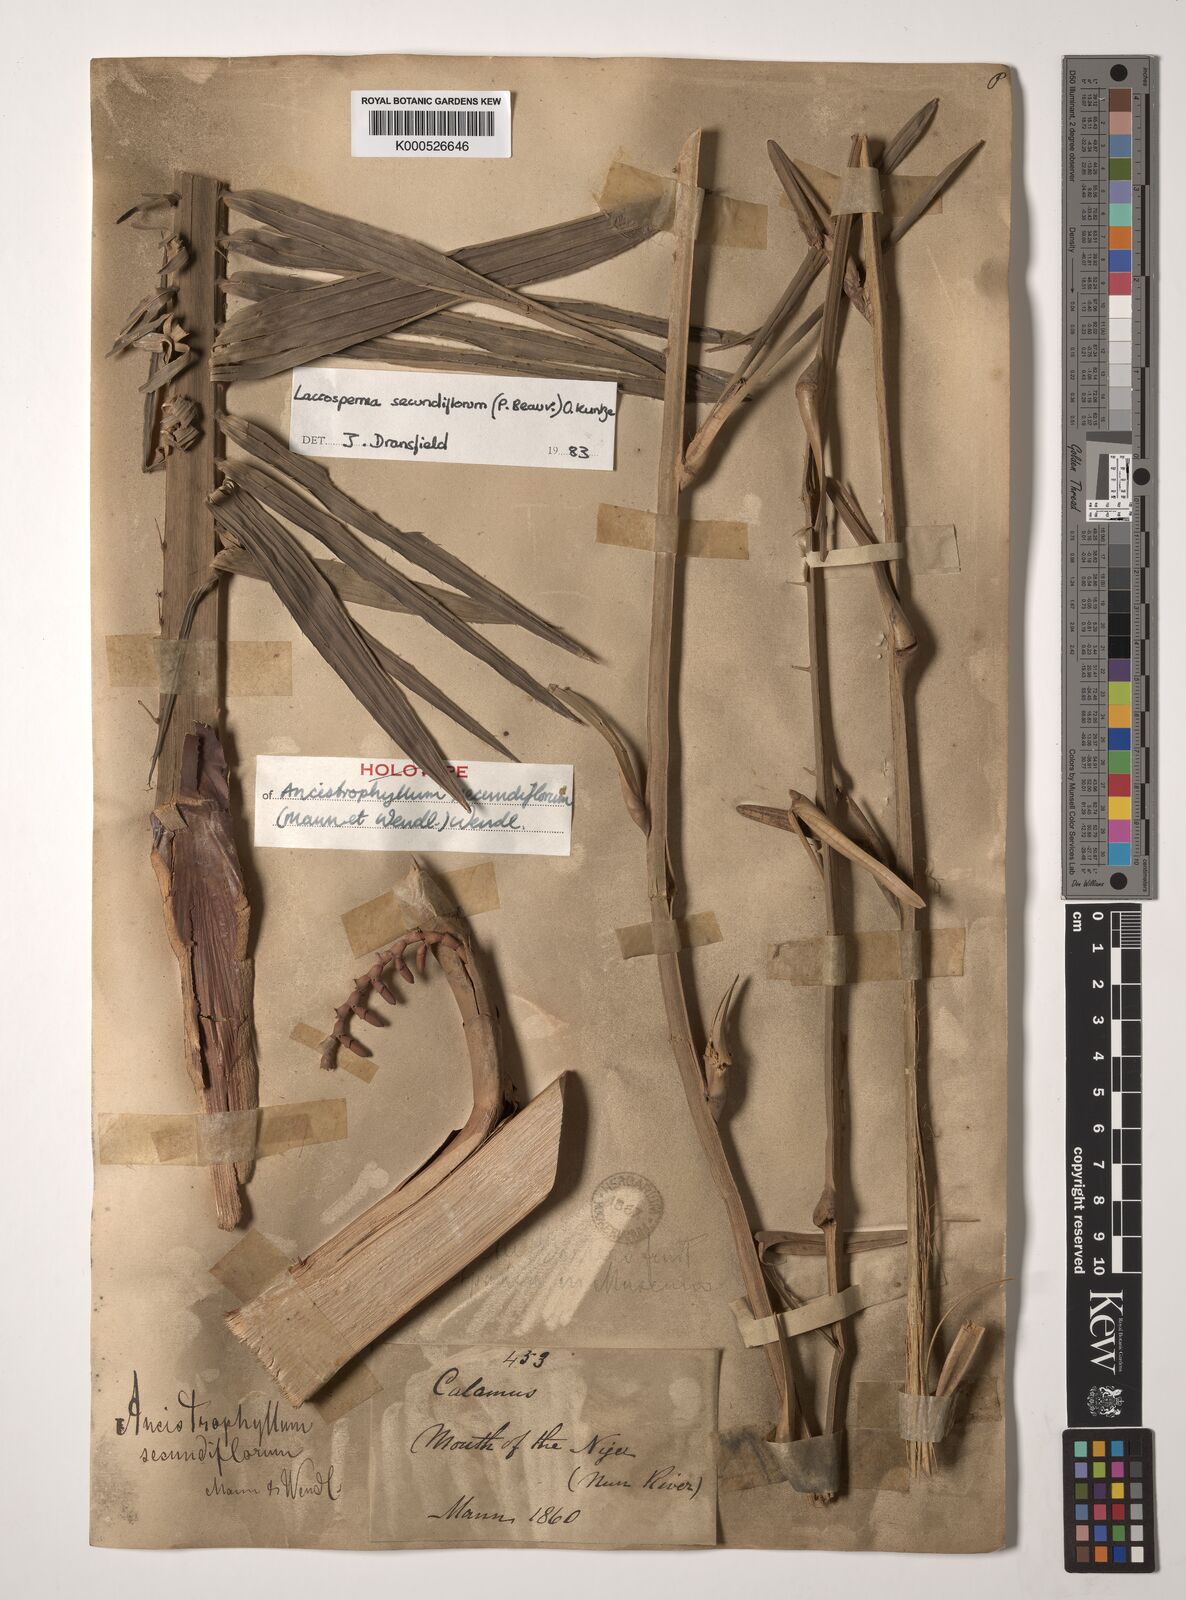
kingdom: Plantae
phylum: Tracheophyta
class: Liliopsida
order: Arecales
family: Arecaceae
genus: Laccosperma
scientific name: Laccosperma secundiflorum
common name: Rattan
